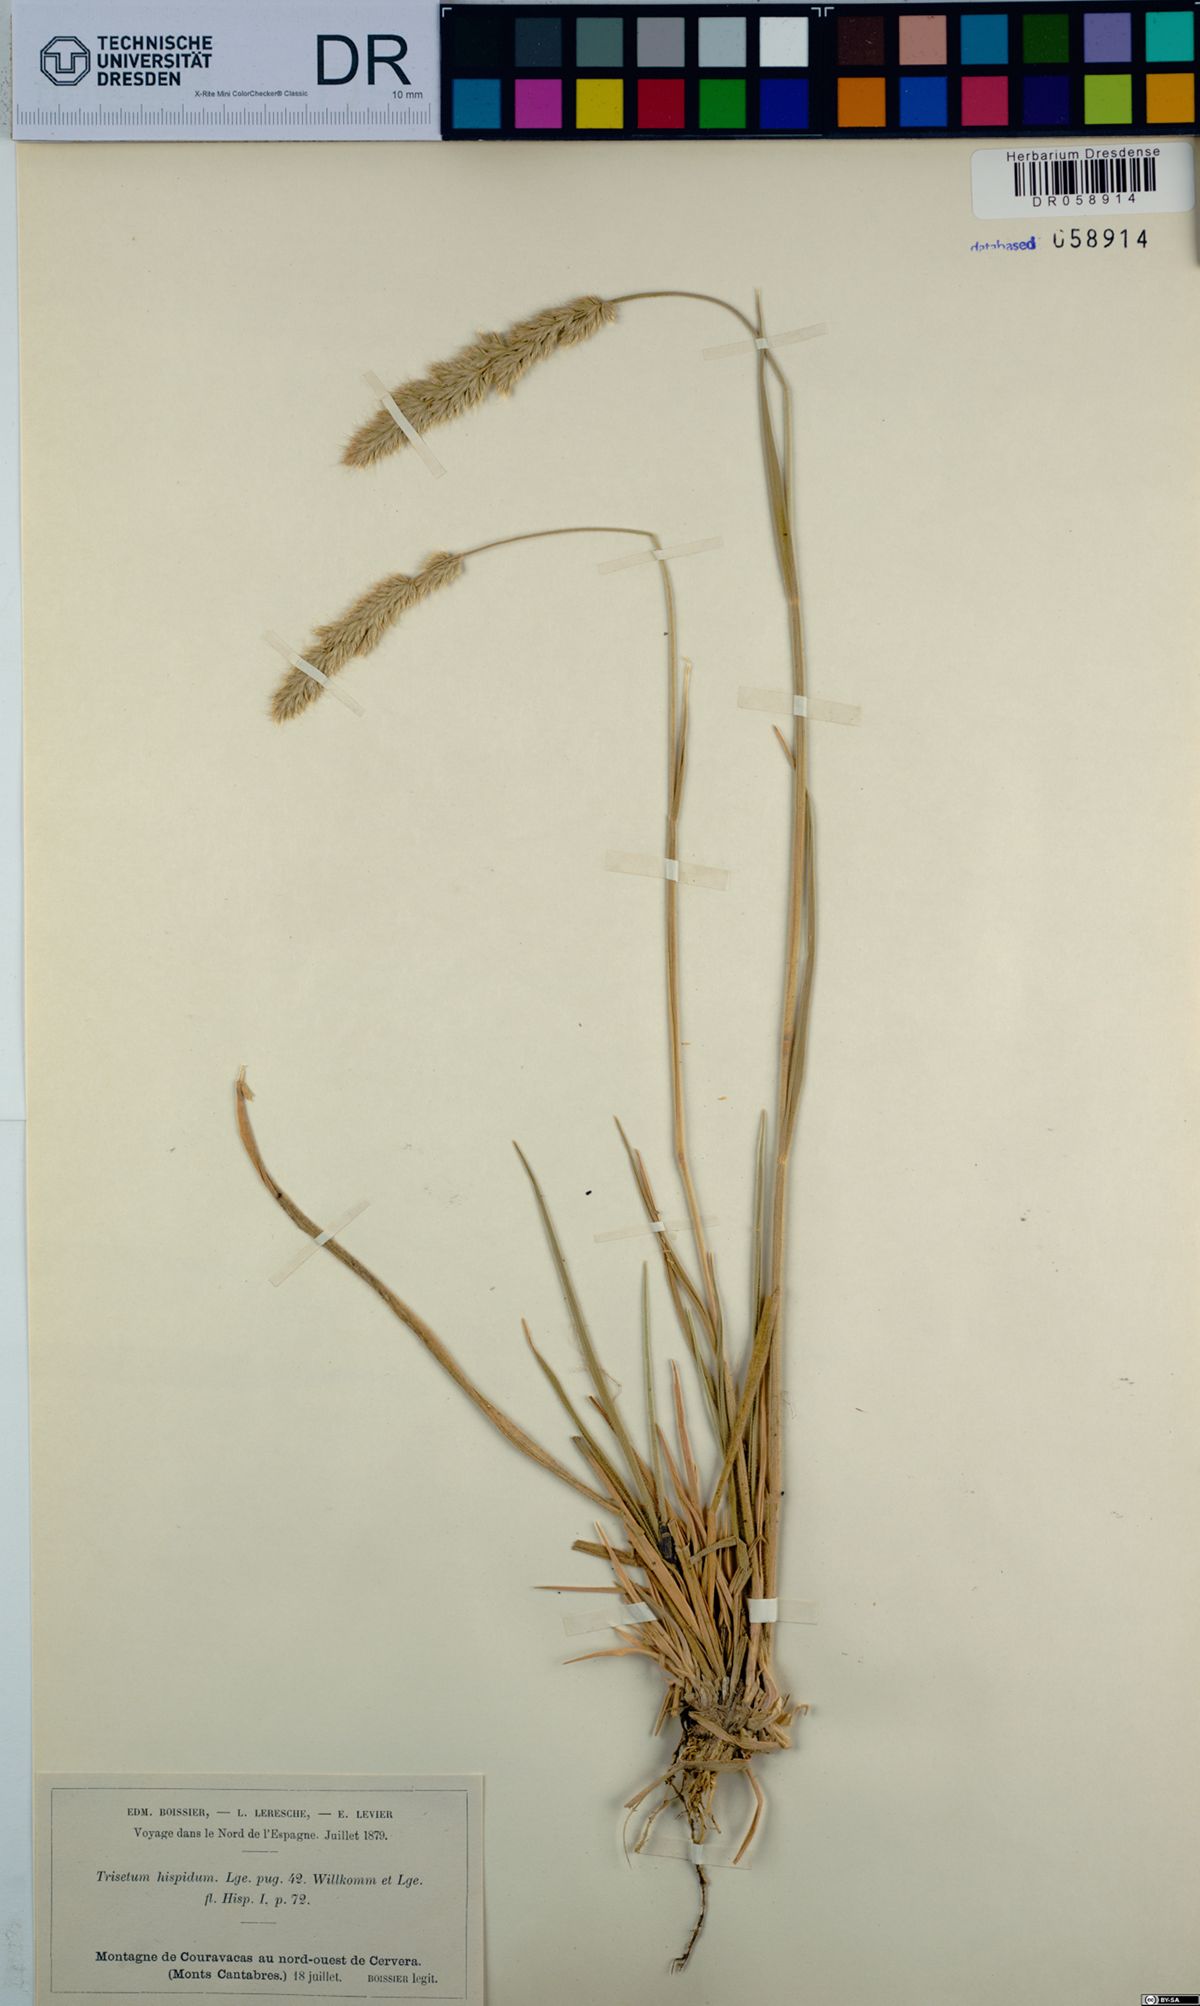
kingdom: Plantae
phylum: Tracheophyta
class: Liliopsida
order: Poales
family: Poaceae
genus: Koeleria
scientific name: Koeleria hispanica
